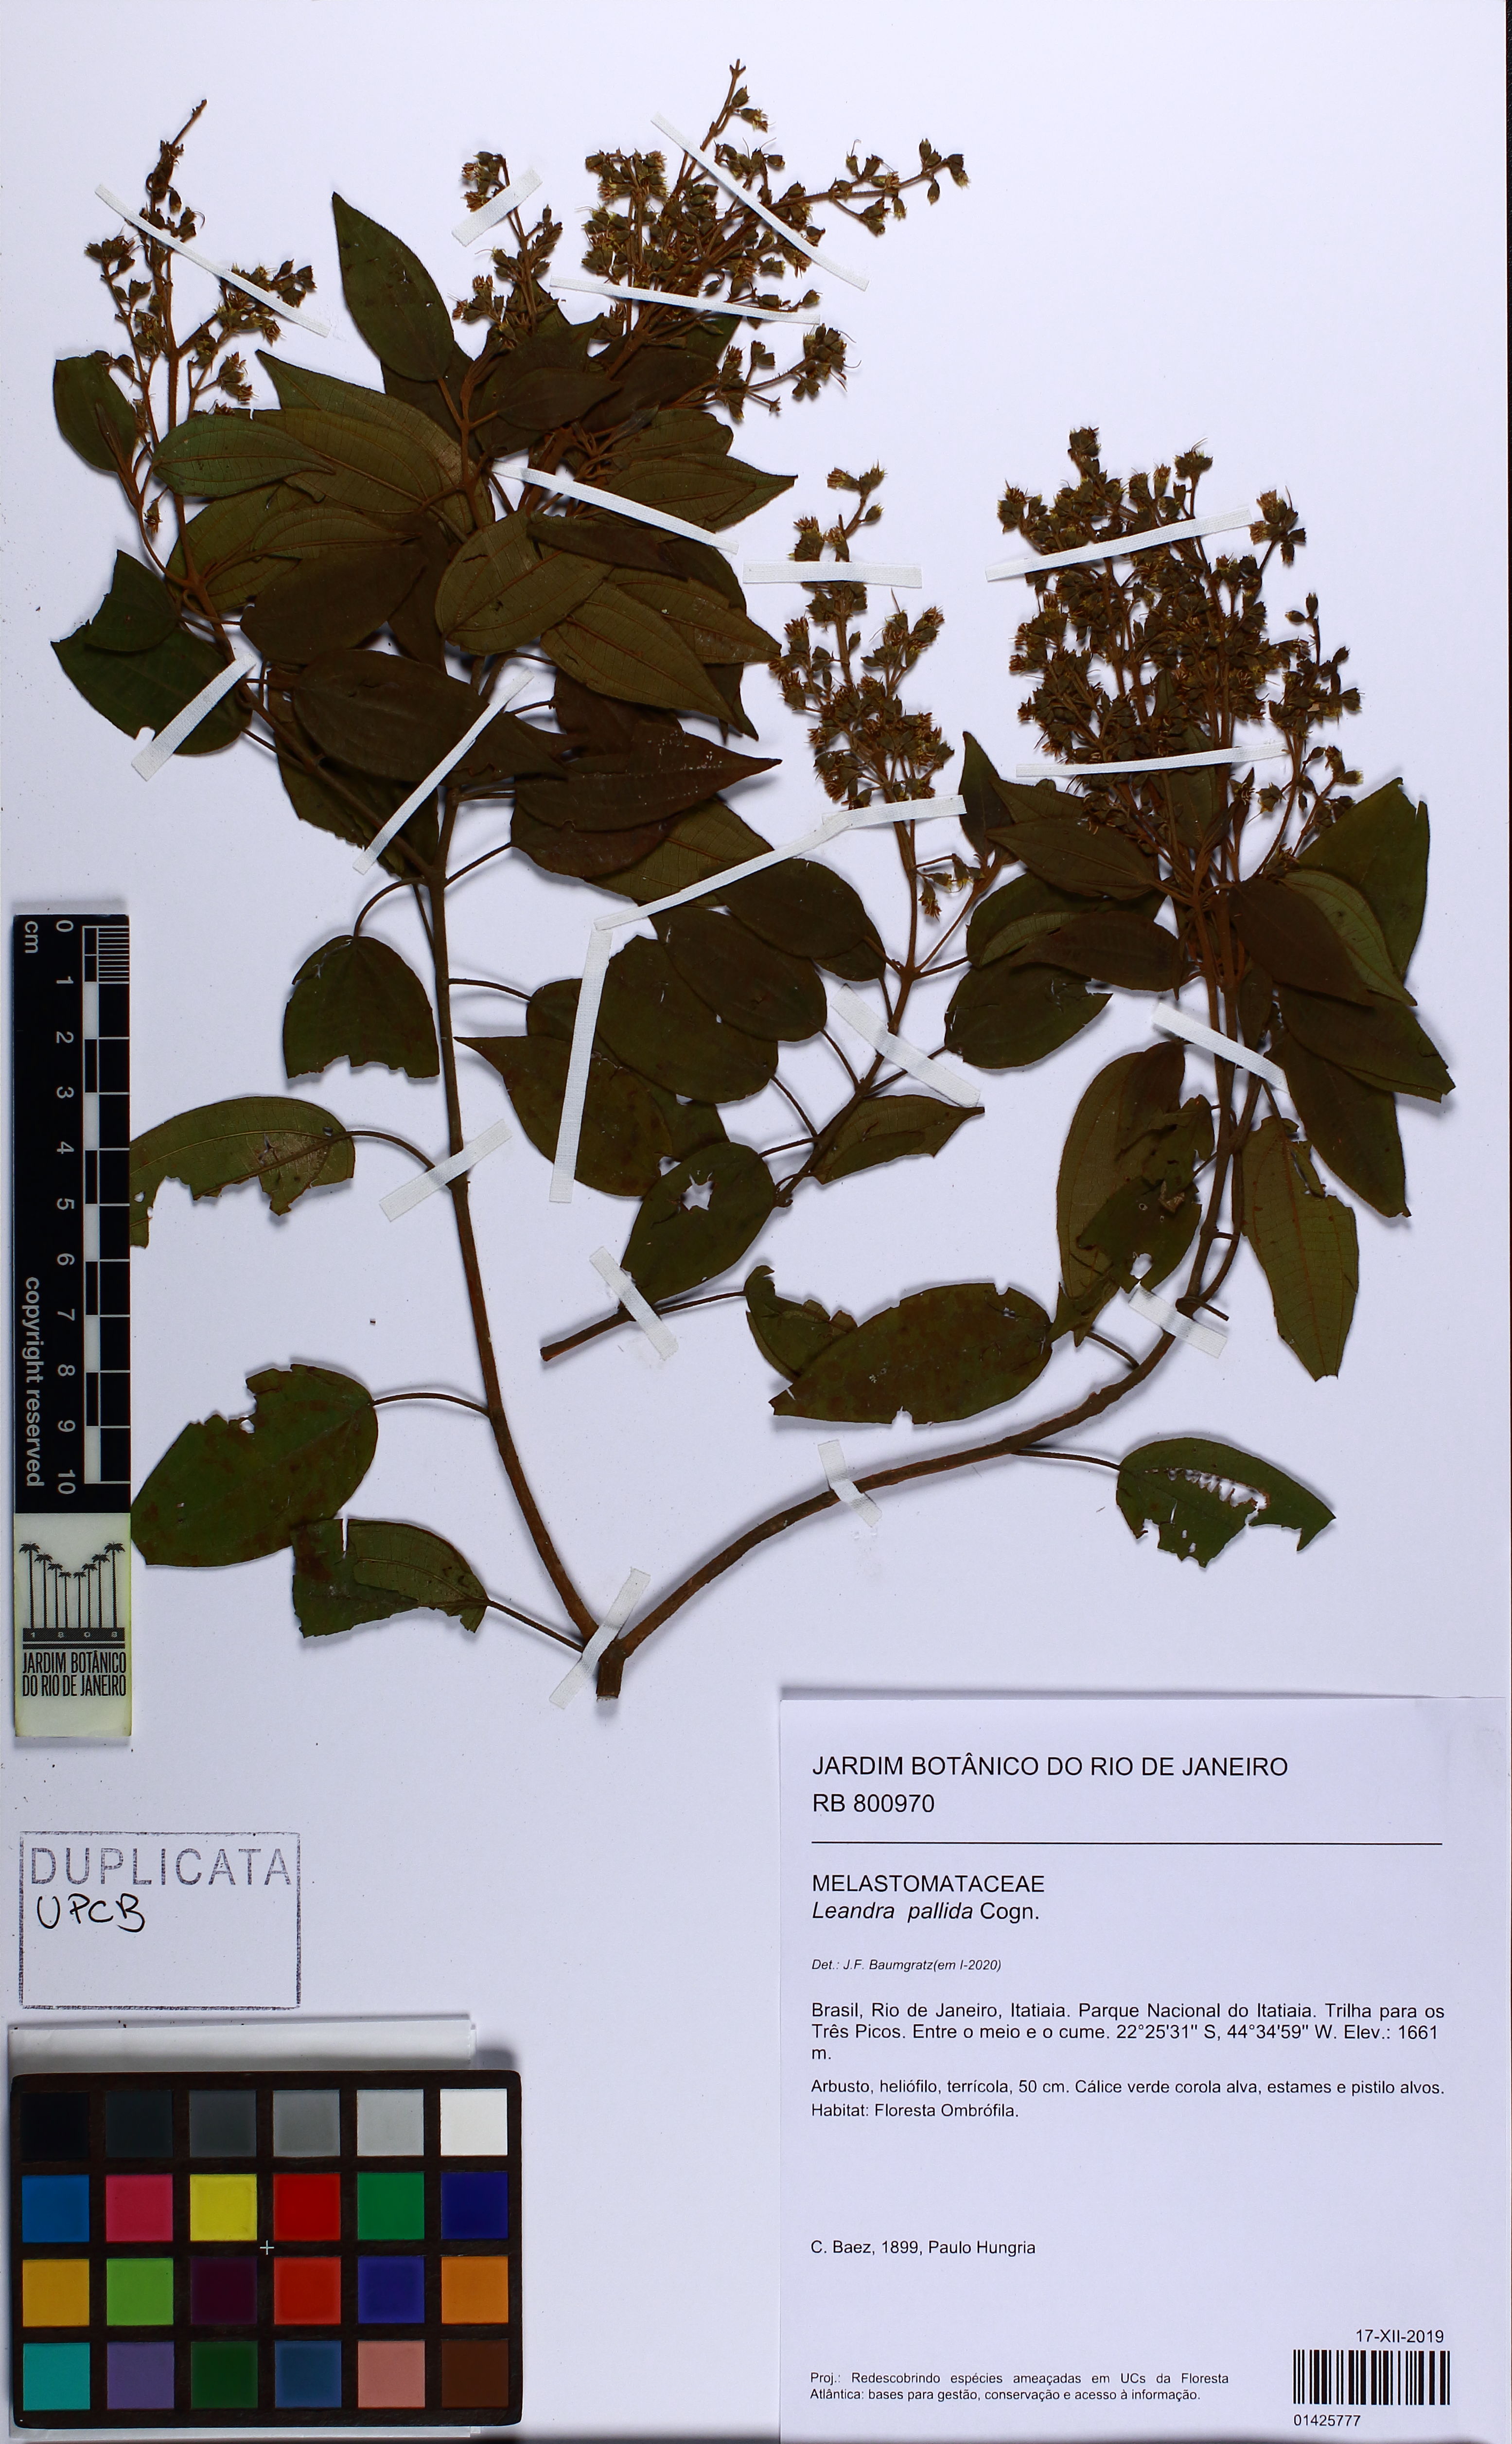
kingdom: Plantae
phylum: Tracheophyta
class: Magnoliopsida
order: Myrtales
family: Melastomataceae
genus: Miconia
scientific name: Miconia leapallida
